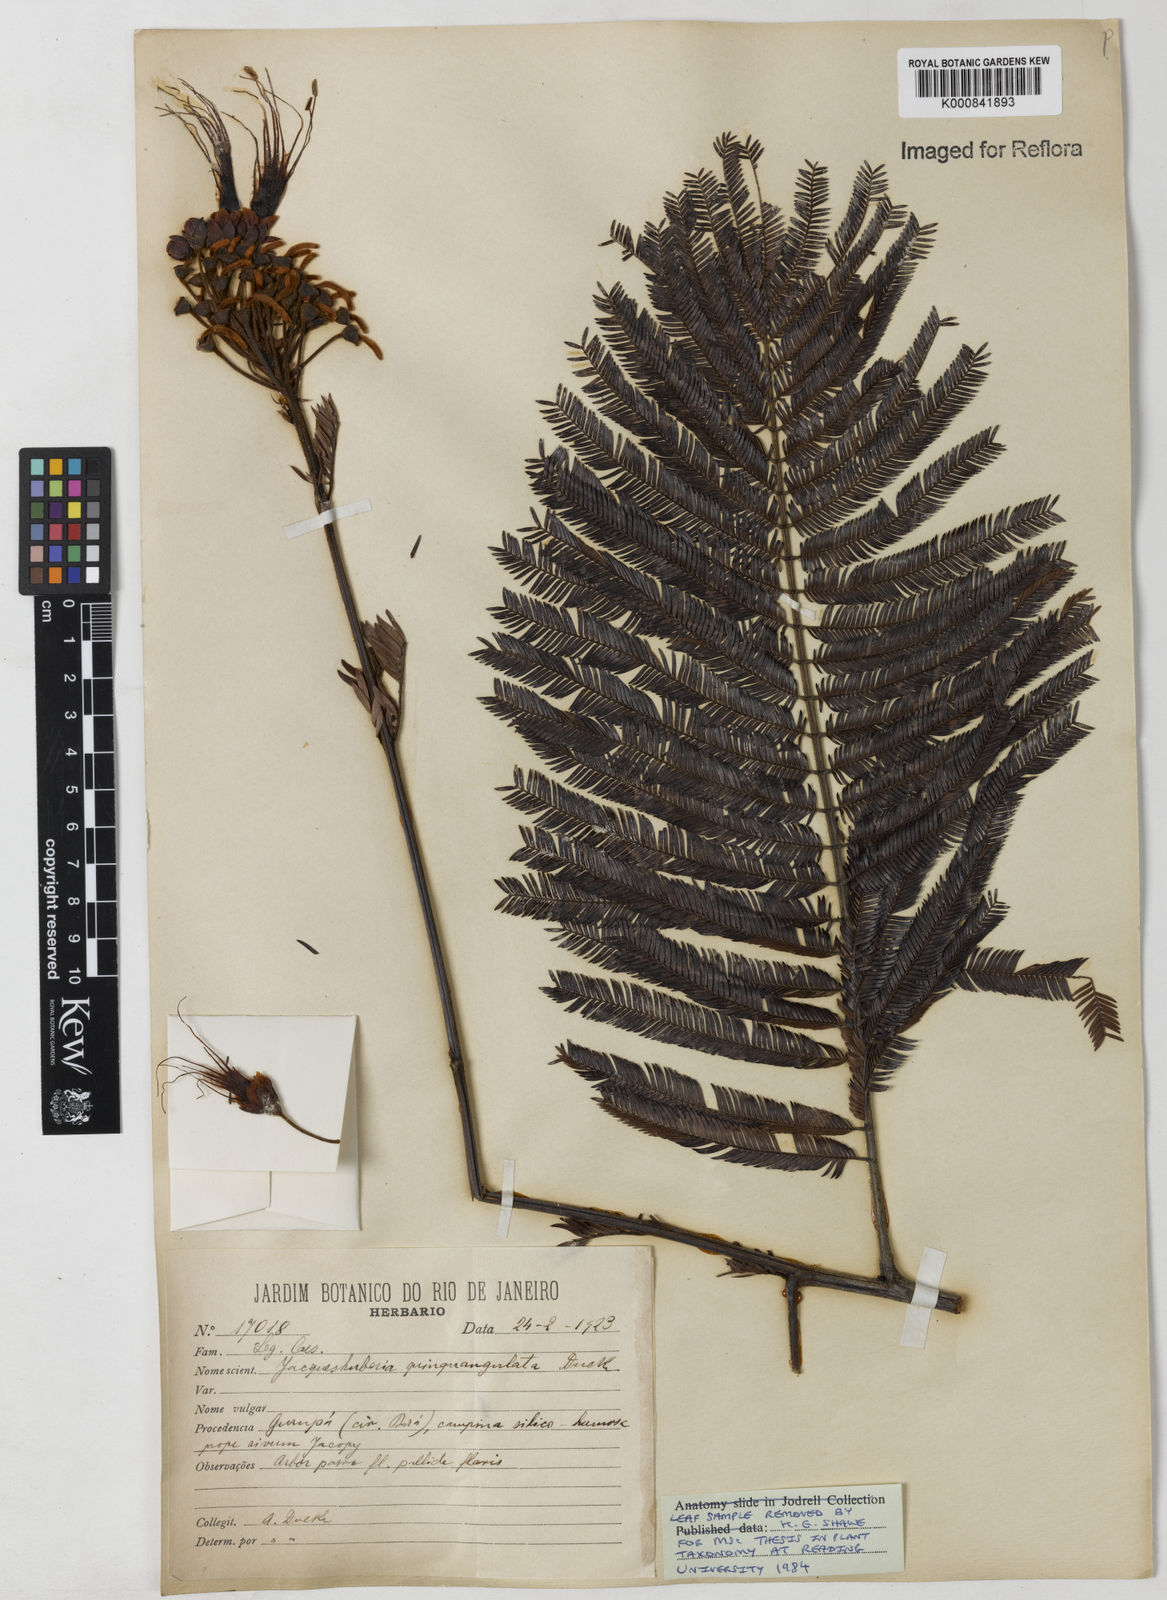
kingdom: Plantae
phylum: Tracheophyta
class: Magnoliopsida
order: Fabales
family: Fabaceae
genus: Jacqueshuberia
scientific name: Jacqueshuberia quinquangulata
